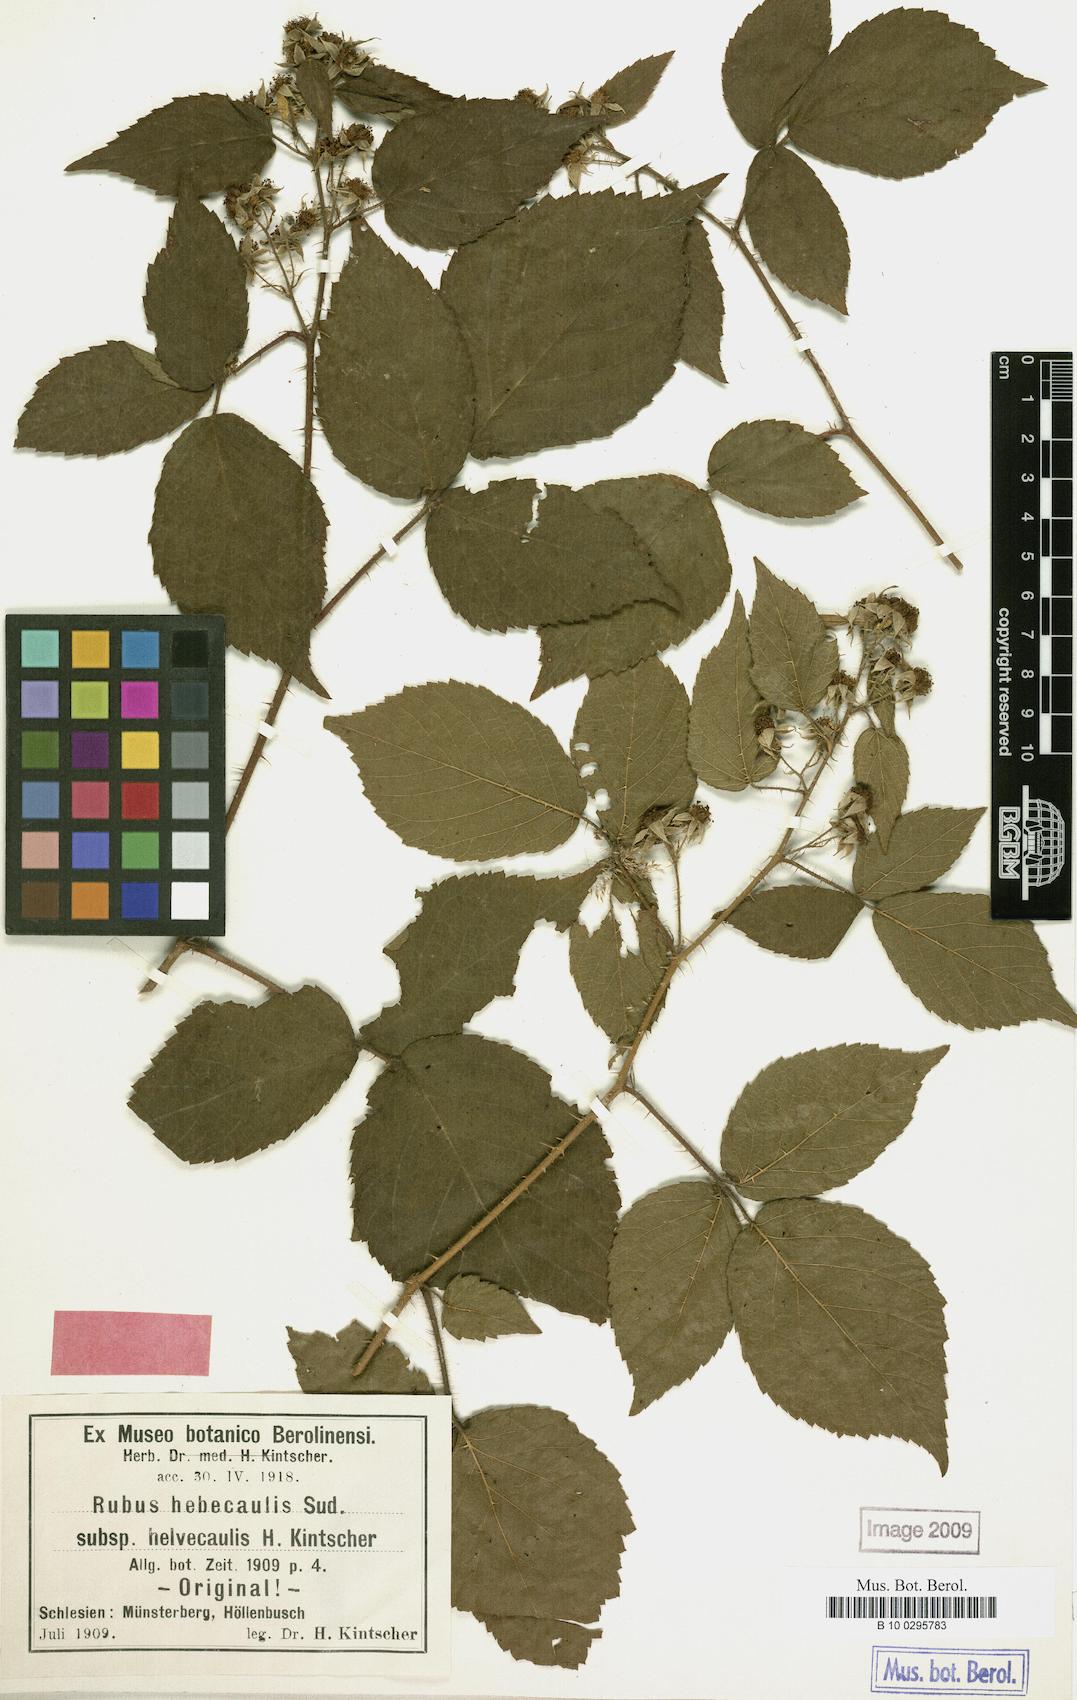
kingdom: Plantae
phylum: Tracheophyta
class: Magnoliopsida
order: Rosales
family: Rosaceae
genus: Rubus
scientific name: Rubus hebecaulis
